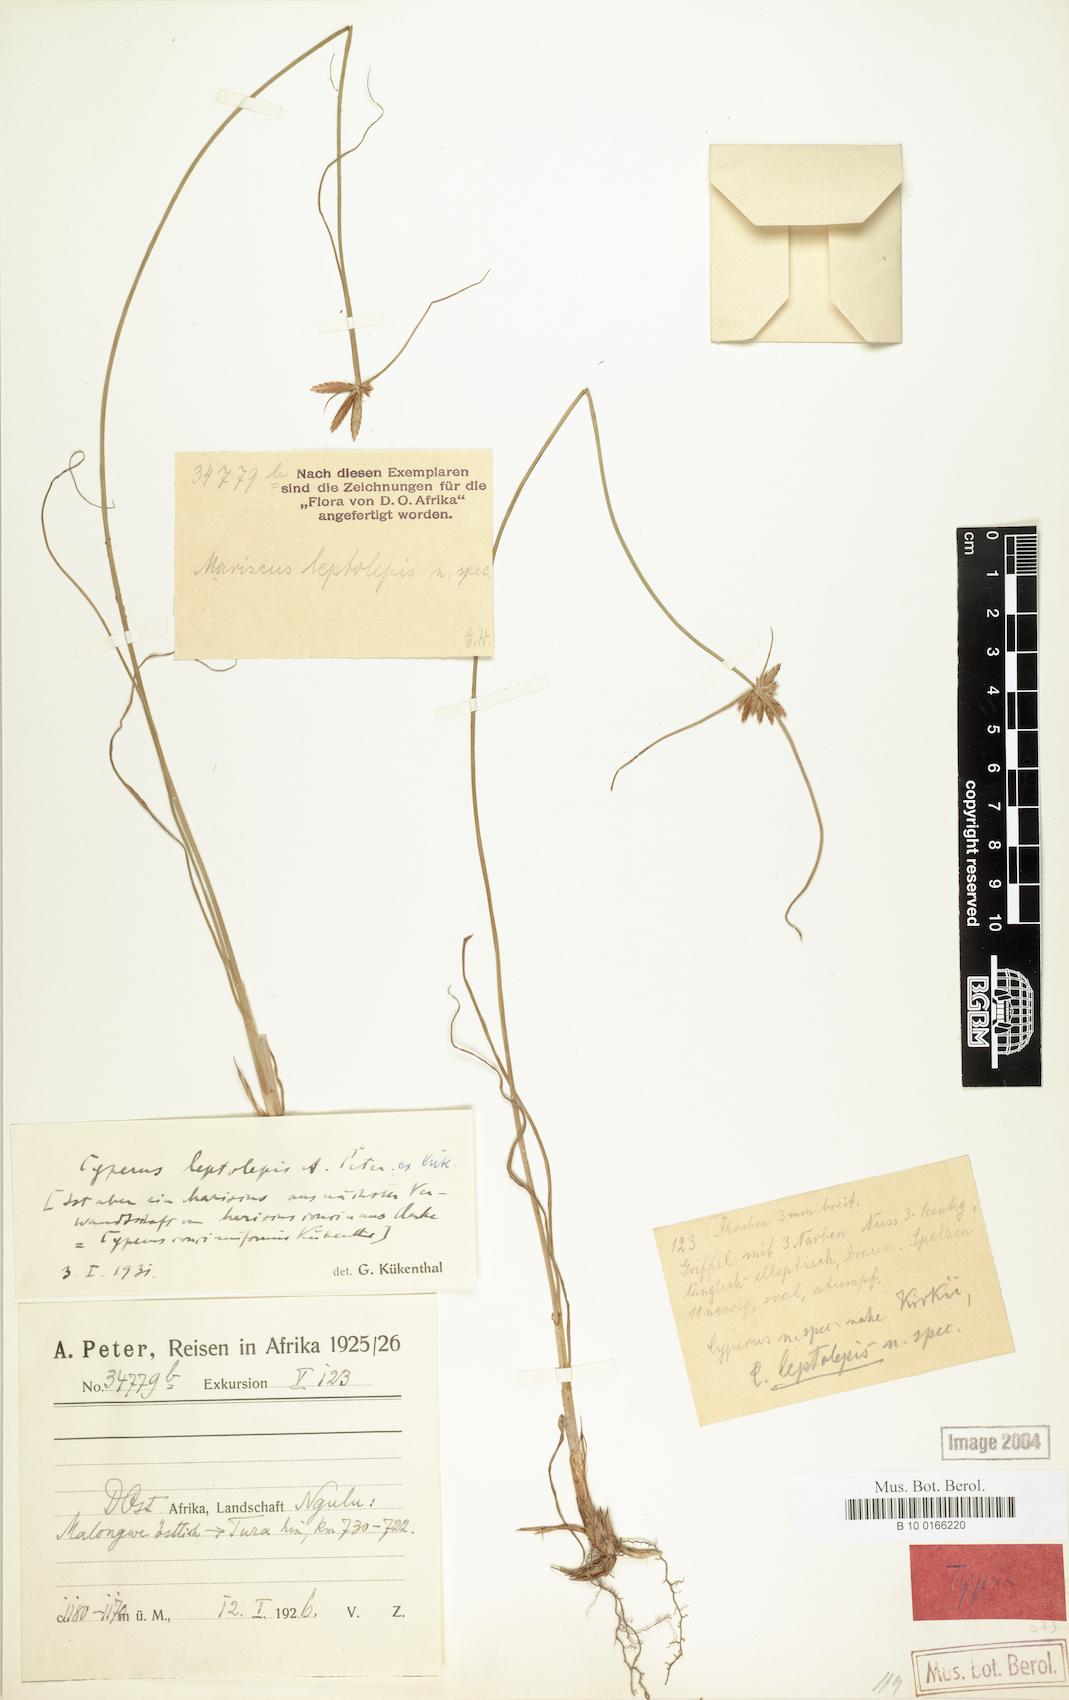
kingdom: Plantae
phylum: Tracheophyta
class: Liliopsida
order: Poales
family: Cyperaceae
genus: Cyperus
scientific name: Cyperus amauropus
